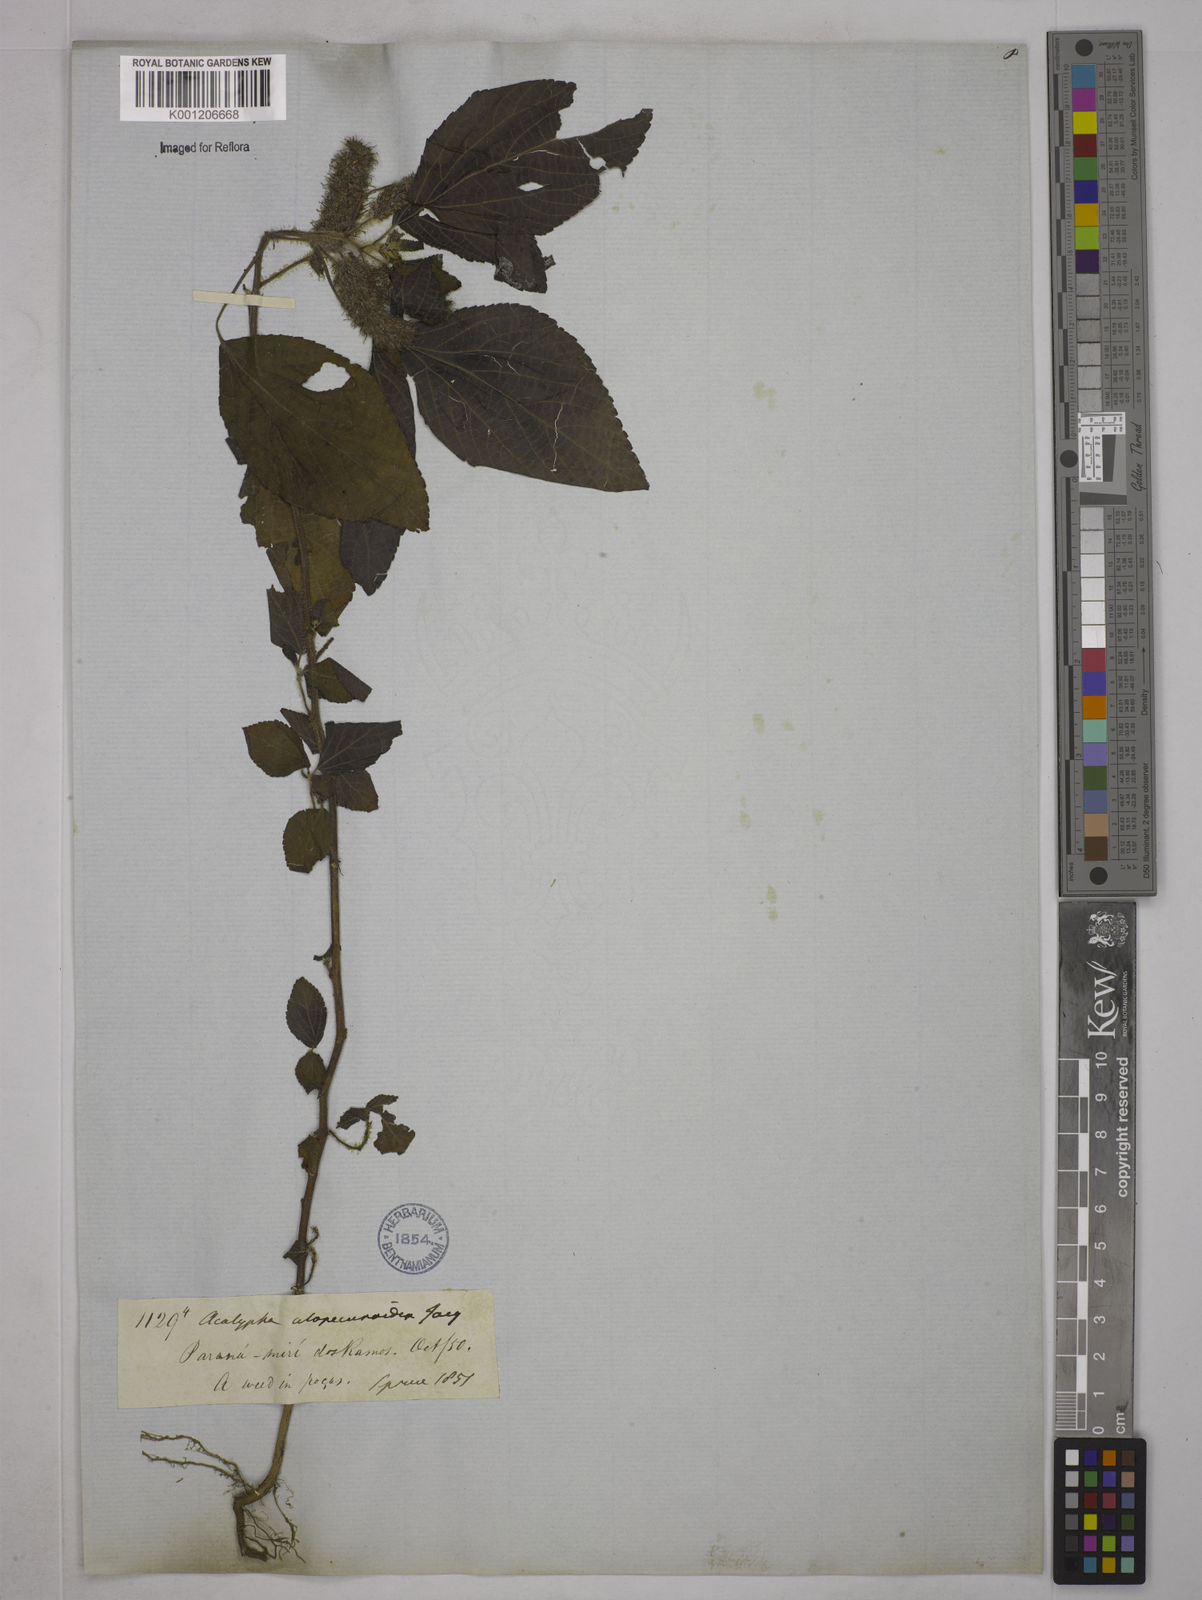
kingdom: Plantae
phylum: Tracheophyta
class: Magnoliopsida
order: Malpighiales
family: Euphorbiaceae
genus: Acalypha
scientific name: Acalypha arvensis
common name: Field copperleaf
